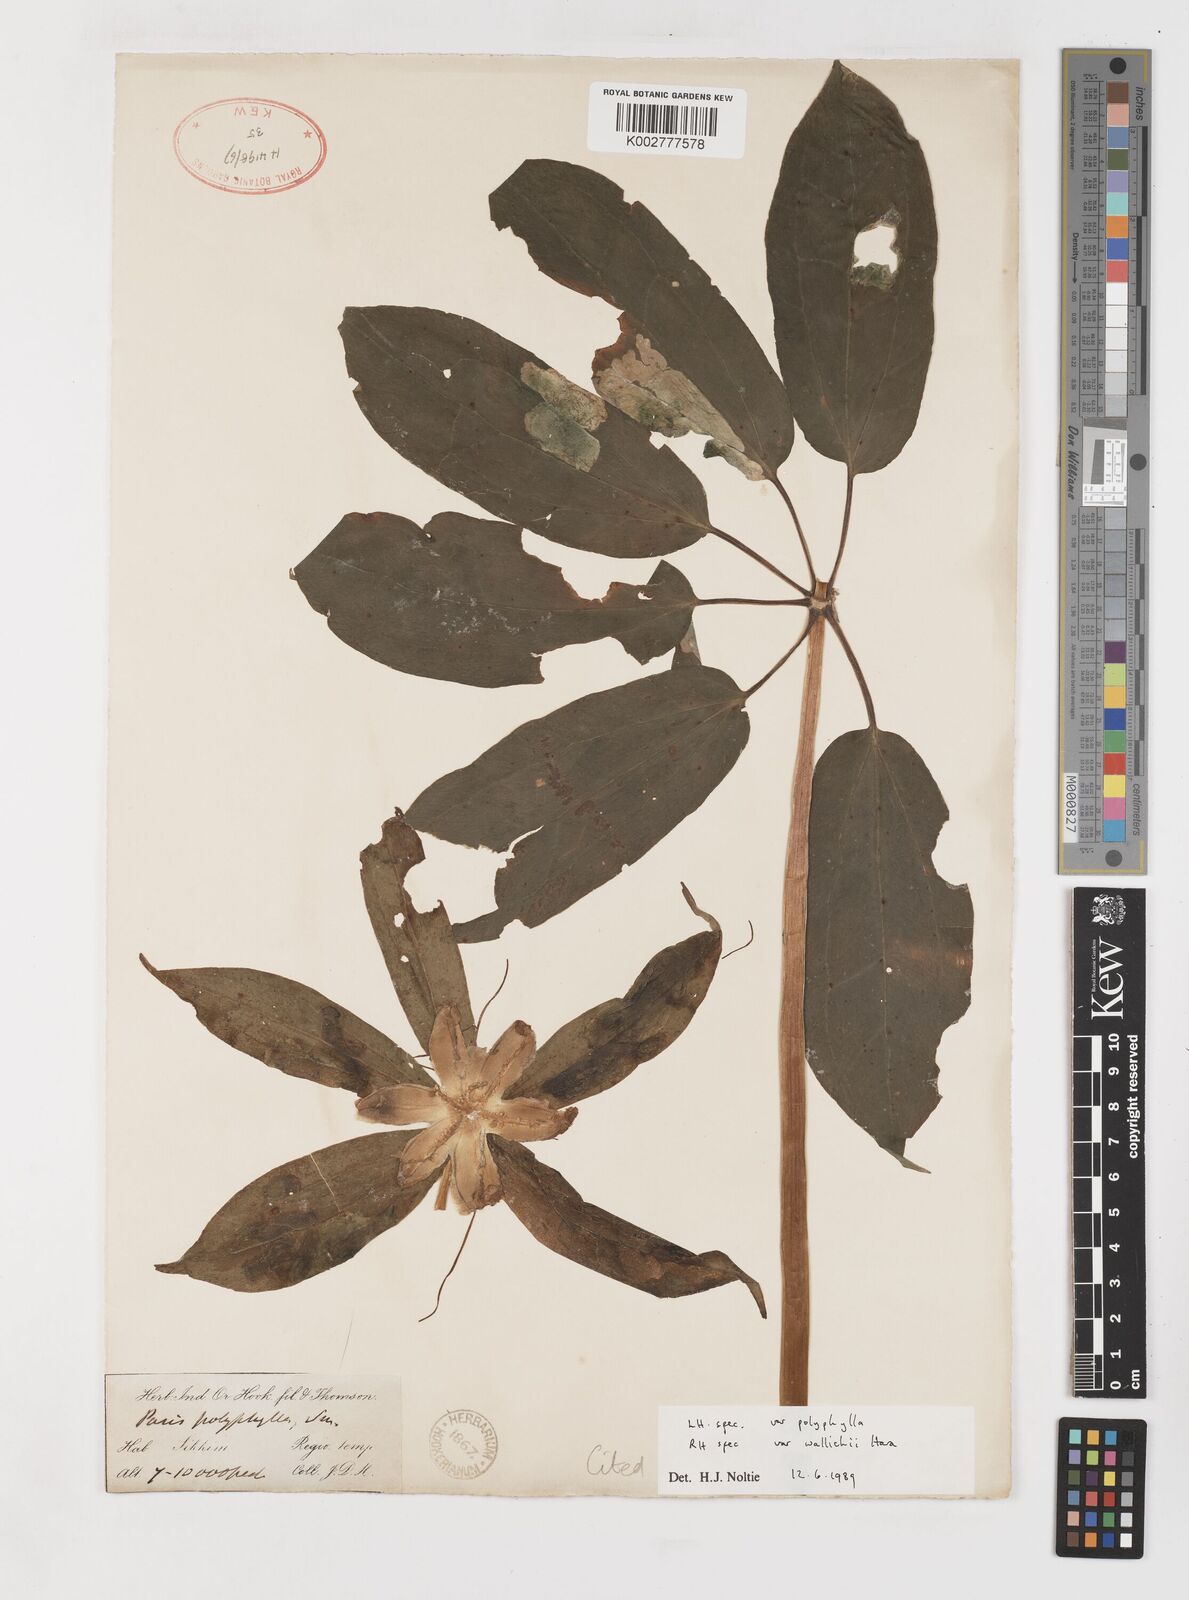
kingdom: Plantae
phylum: Tracheophyta
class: Liliopsida
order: Liliales
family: Melanthiaceae
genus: Paris
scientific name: Paris polyphylla
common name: Love apple
